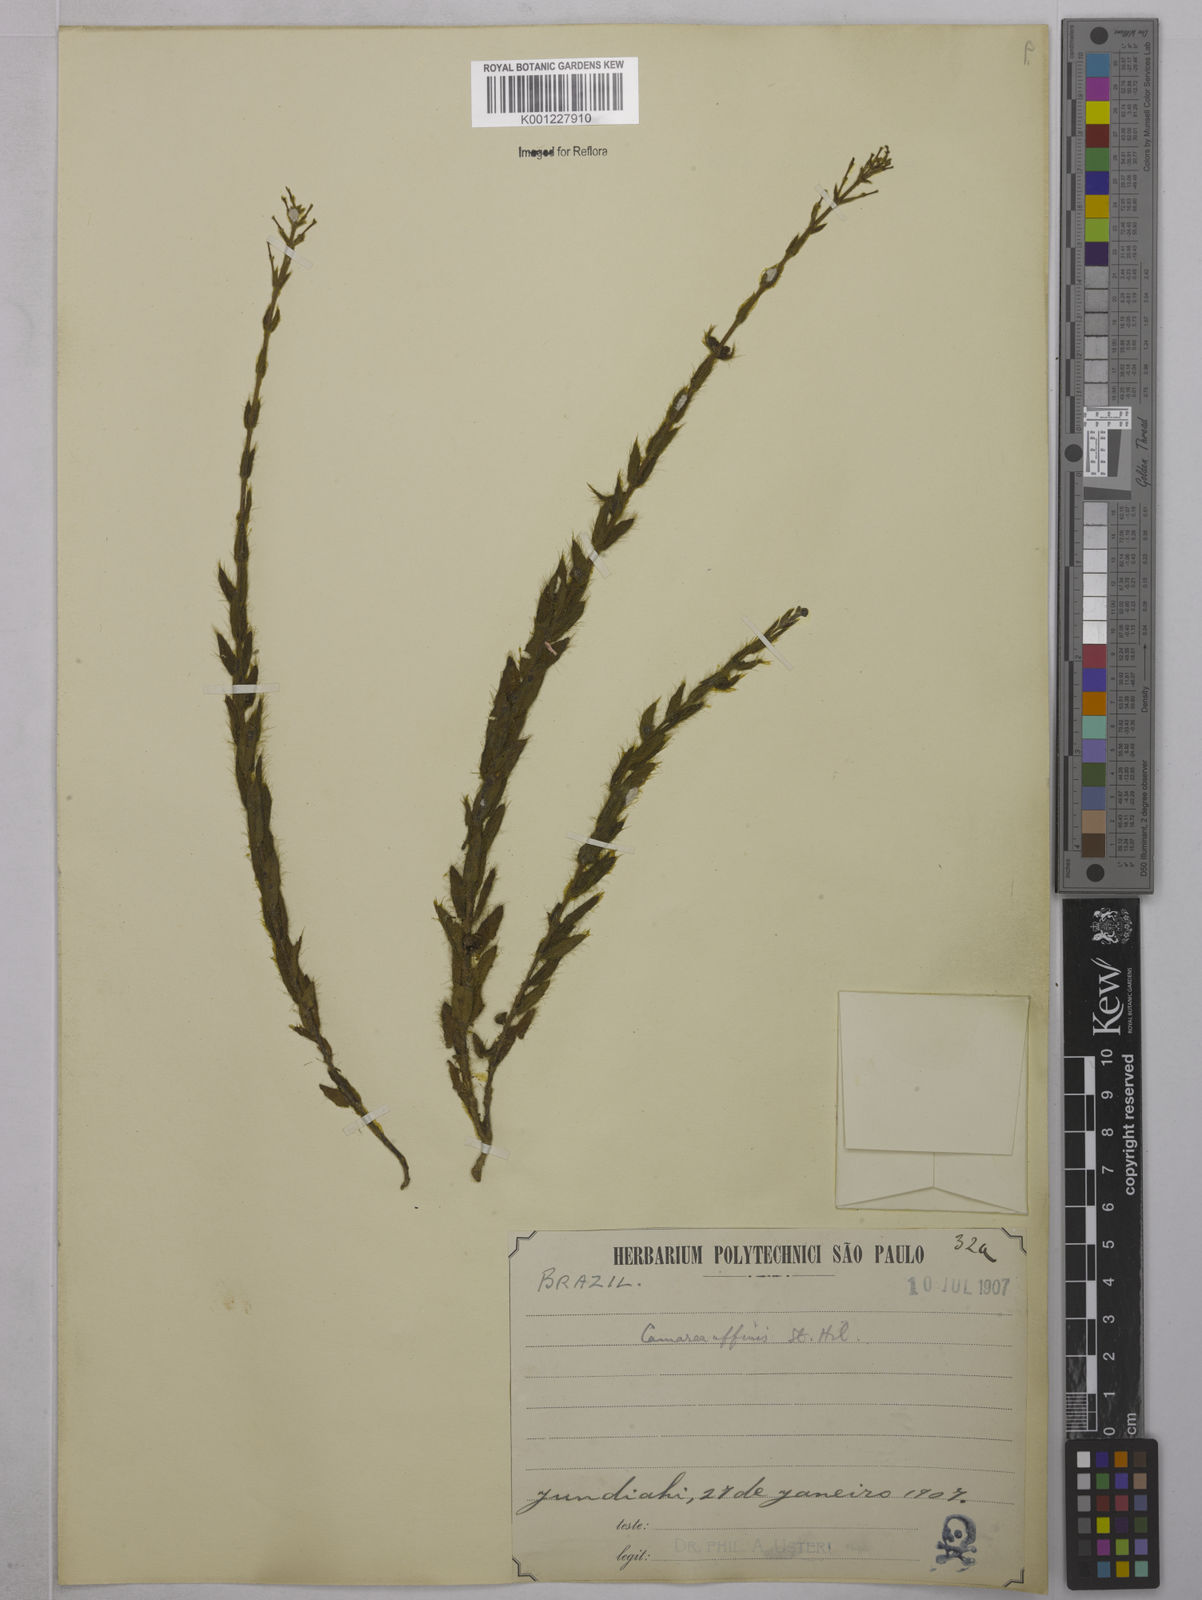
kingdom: Plantae
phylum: Tracheophyta
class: Magnoliopsida
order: Malpighiales
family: Malpighiaceae
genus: Camarea
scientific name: Camarea affinis
